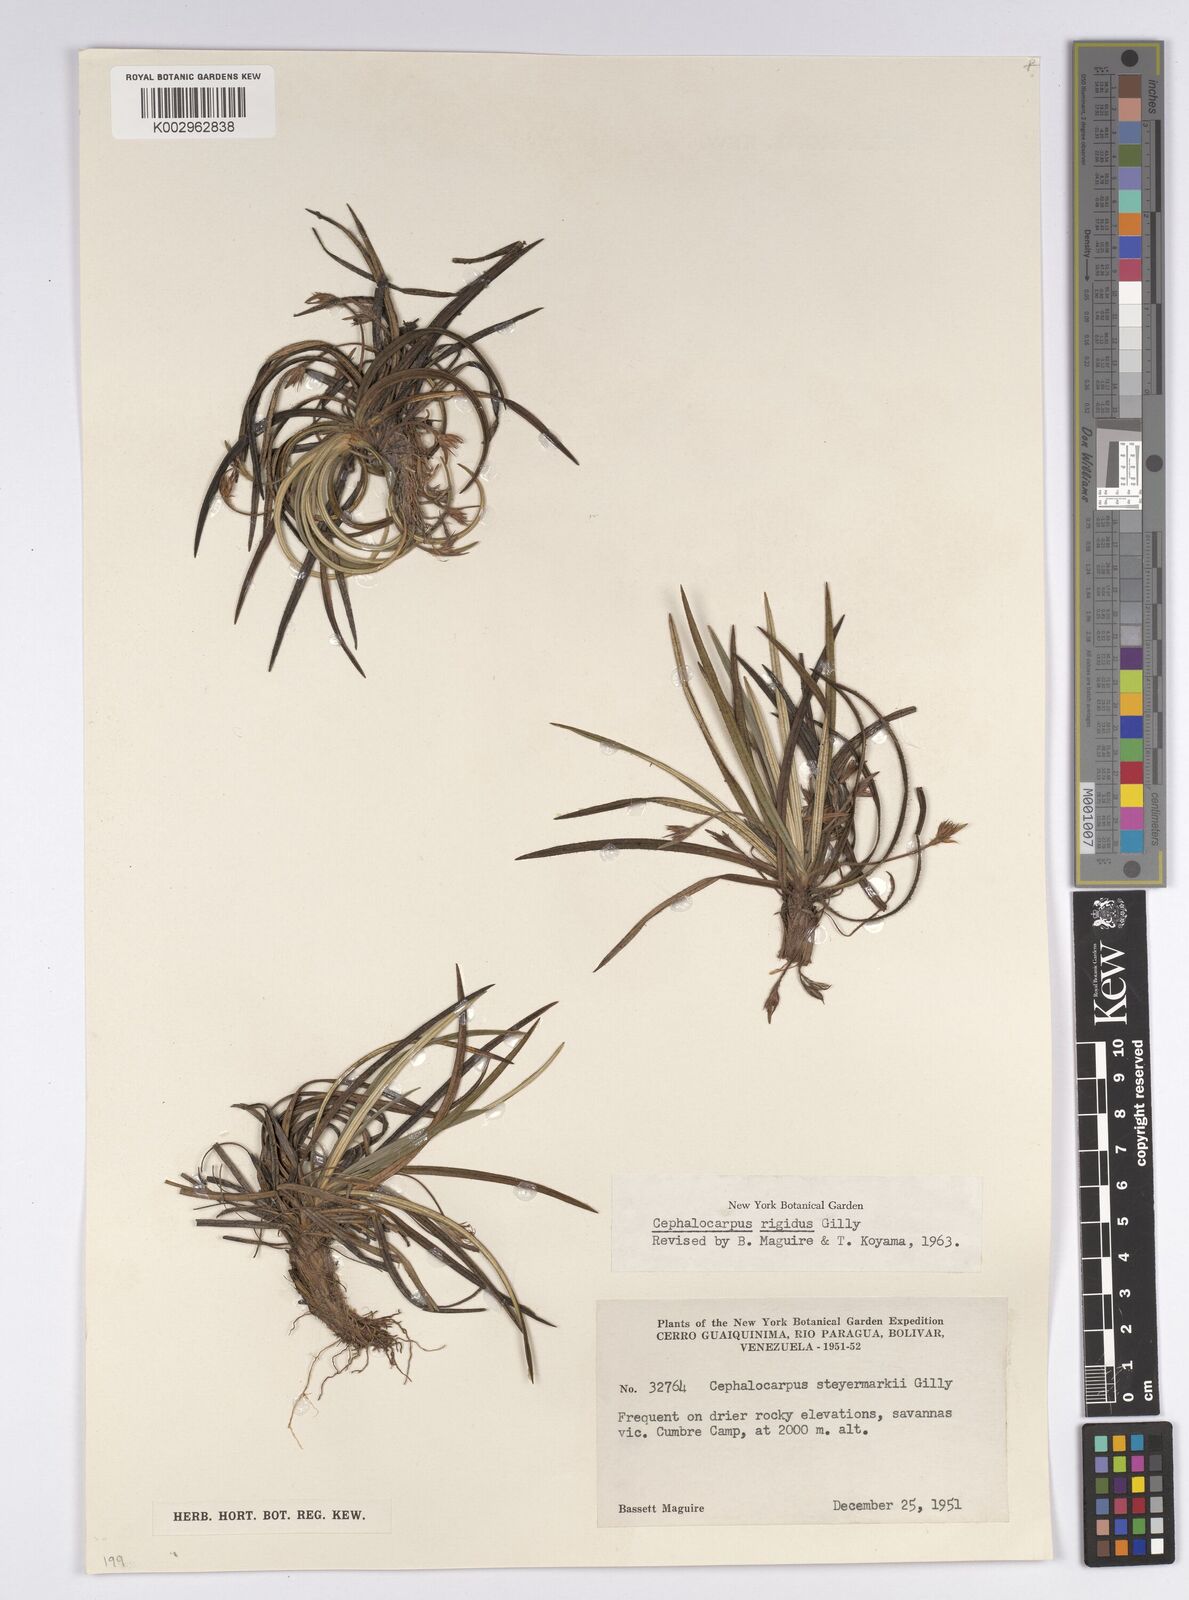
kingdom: Plantae
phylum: Tracheophyta
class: Liliopsida
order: Poales
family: Cyperaceae
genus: Cephalocarpus
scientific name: Cephalocarpus rigidus
